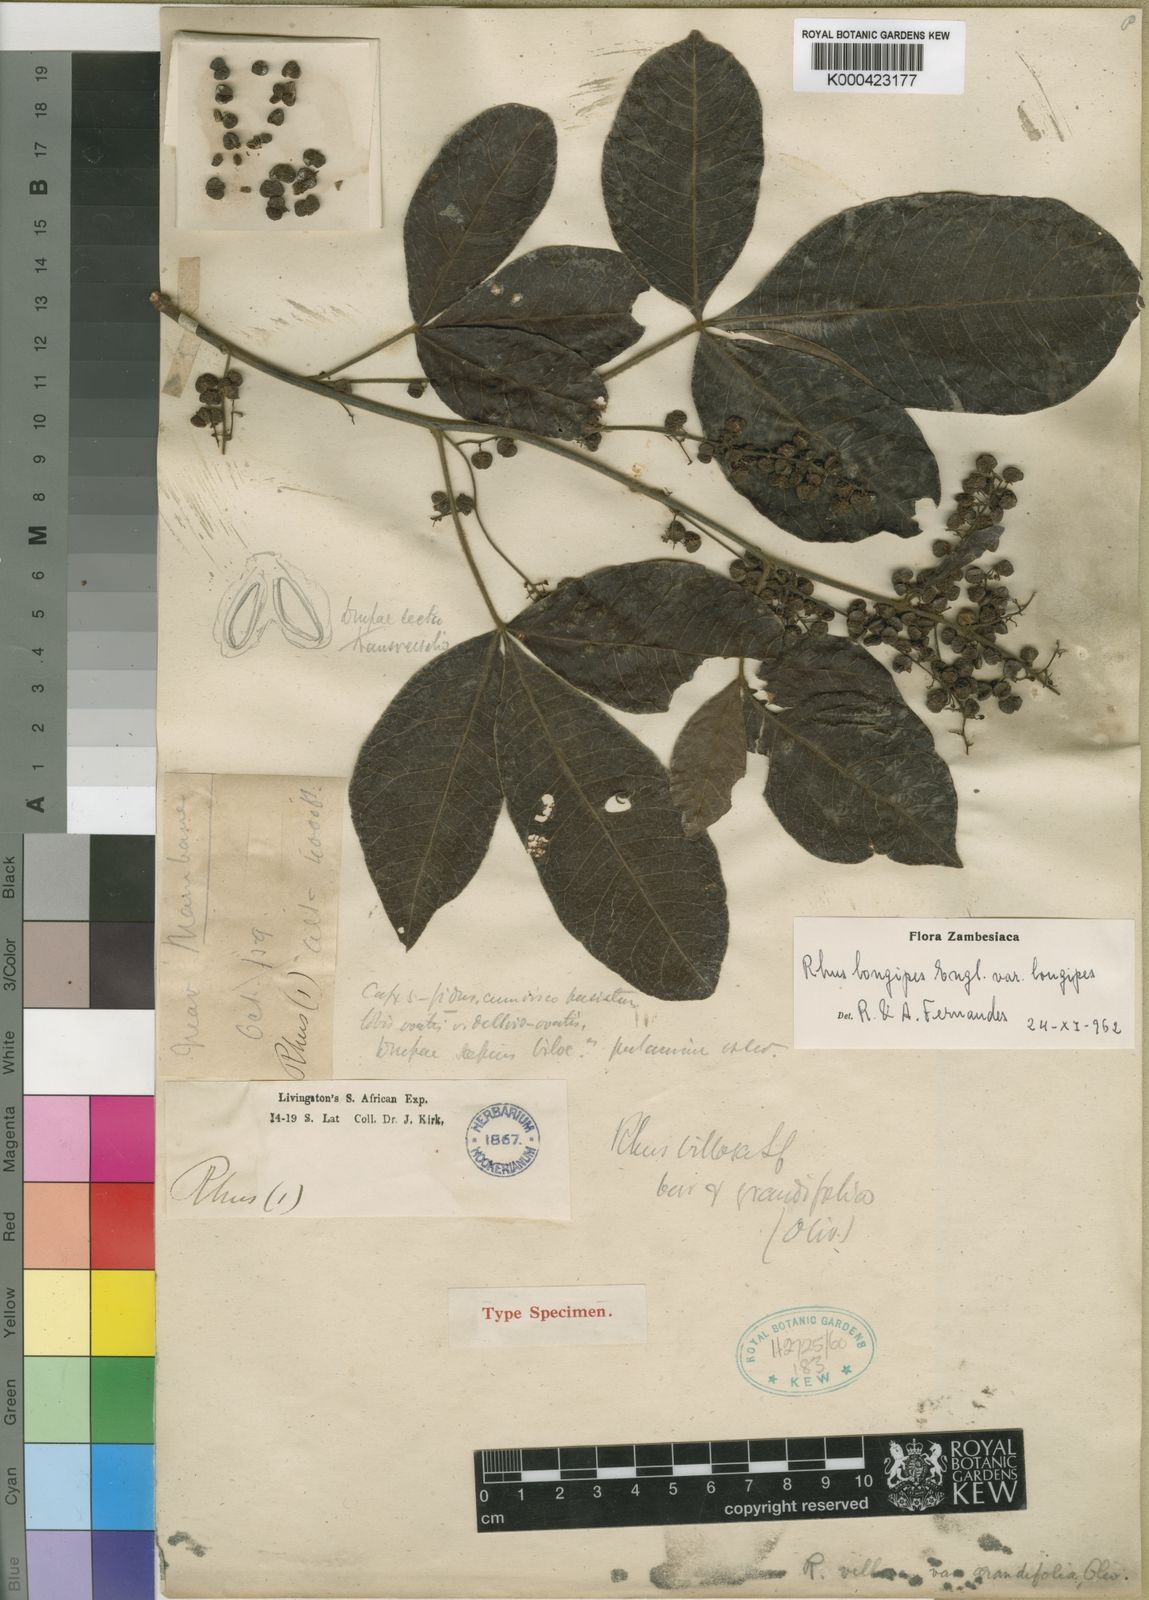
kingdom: Plantae
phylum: Tracheophyta
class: Magnoliopsida
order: Sapindales
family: Anacardiaceae
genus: Searsia
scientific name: Searsia longipes
